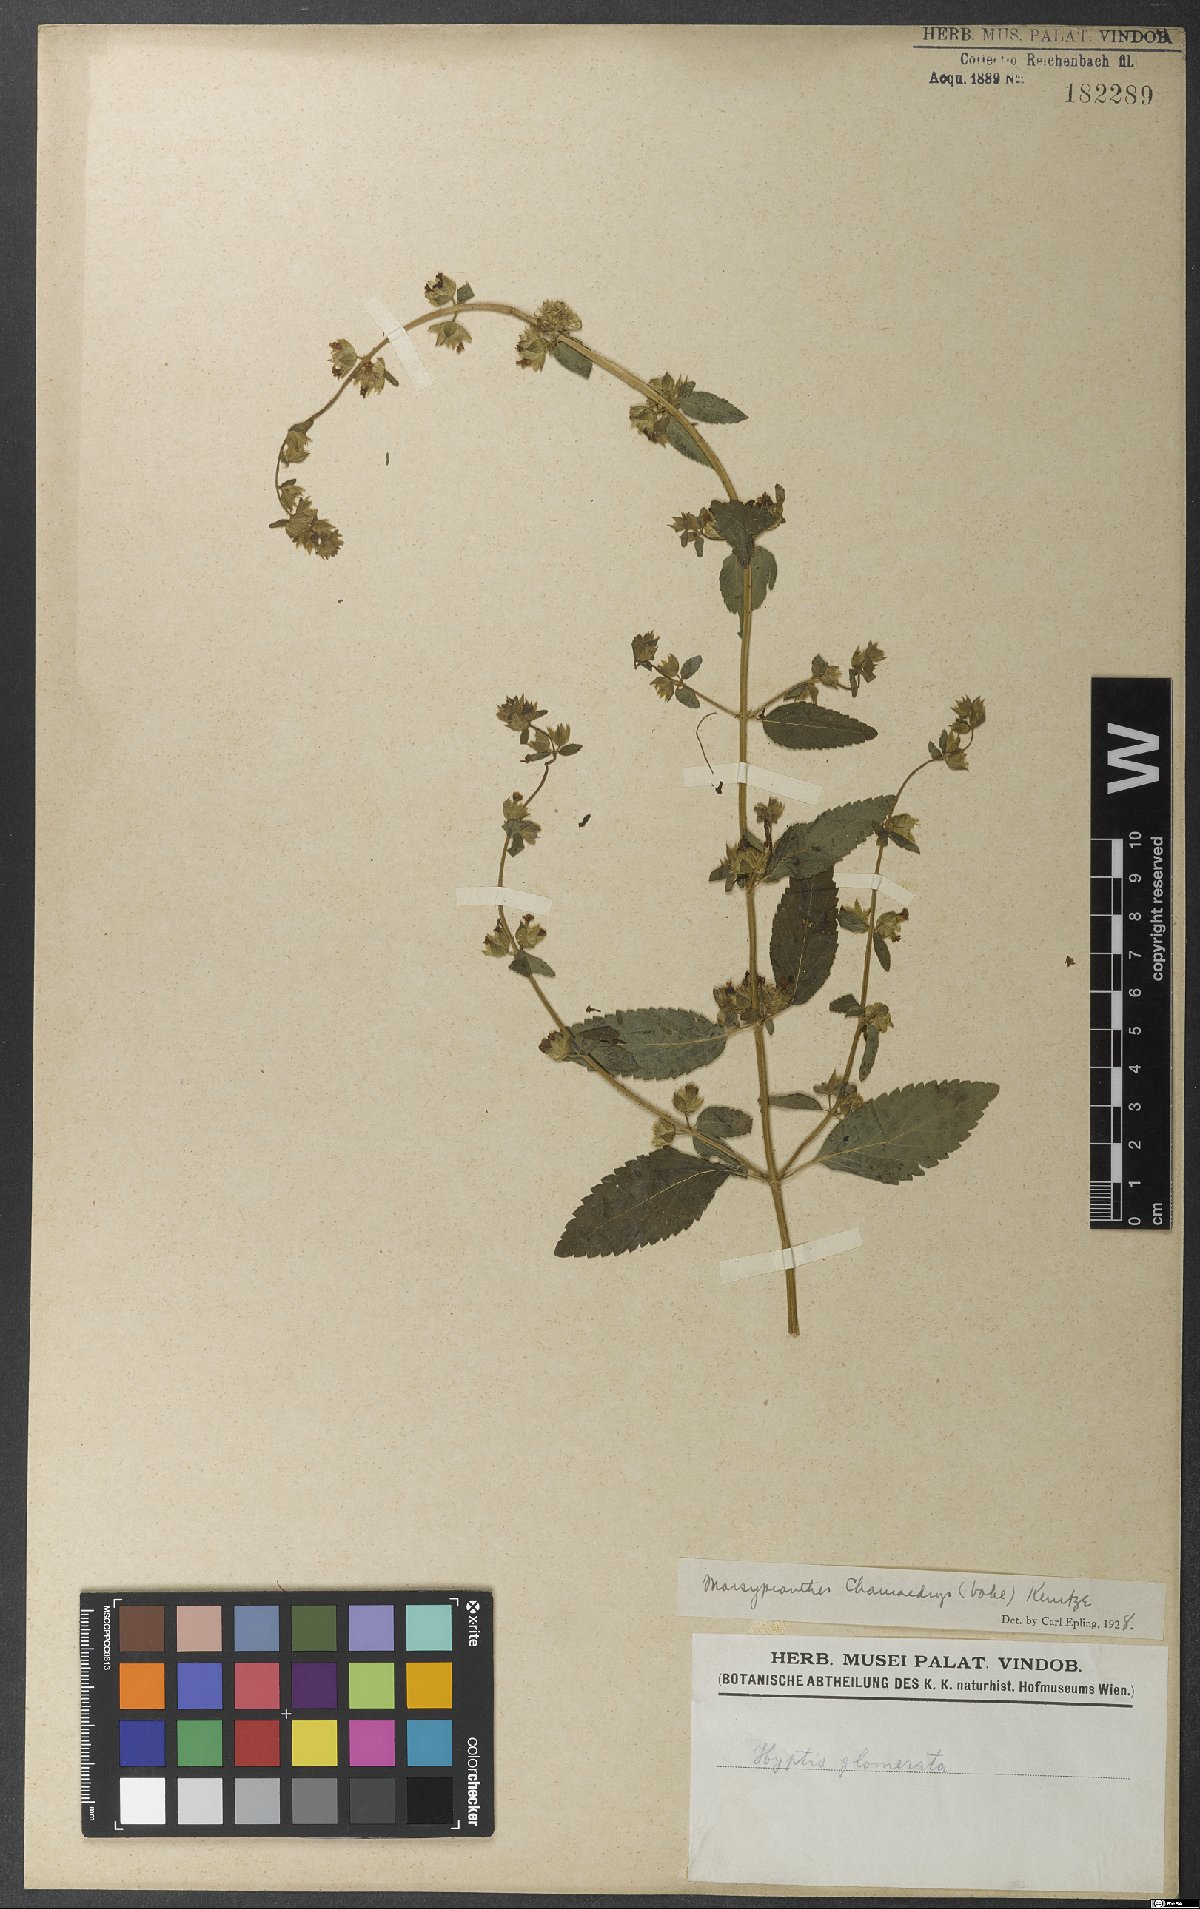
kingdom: Plantae
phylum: Tracheophyta
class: Magnoliopsida
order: Lamiales
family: Lamiaceae
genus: Marsypianthes
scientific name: Marsypianthes chamaedrys
